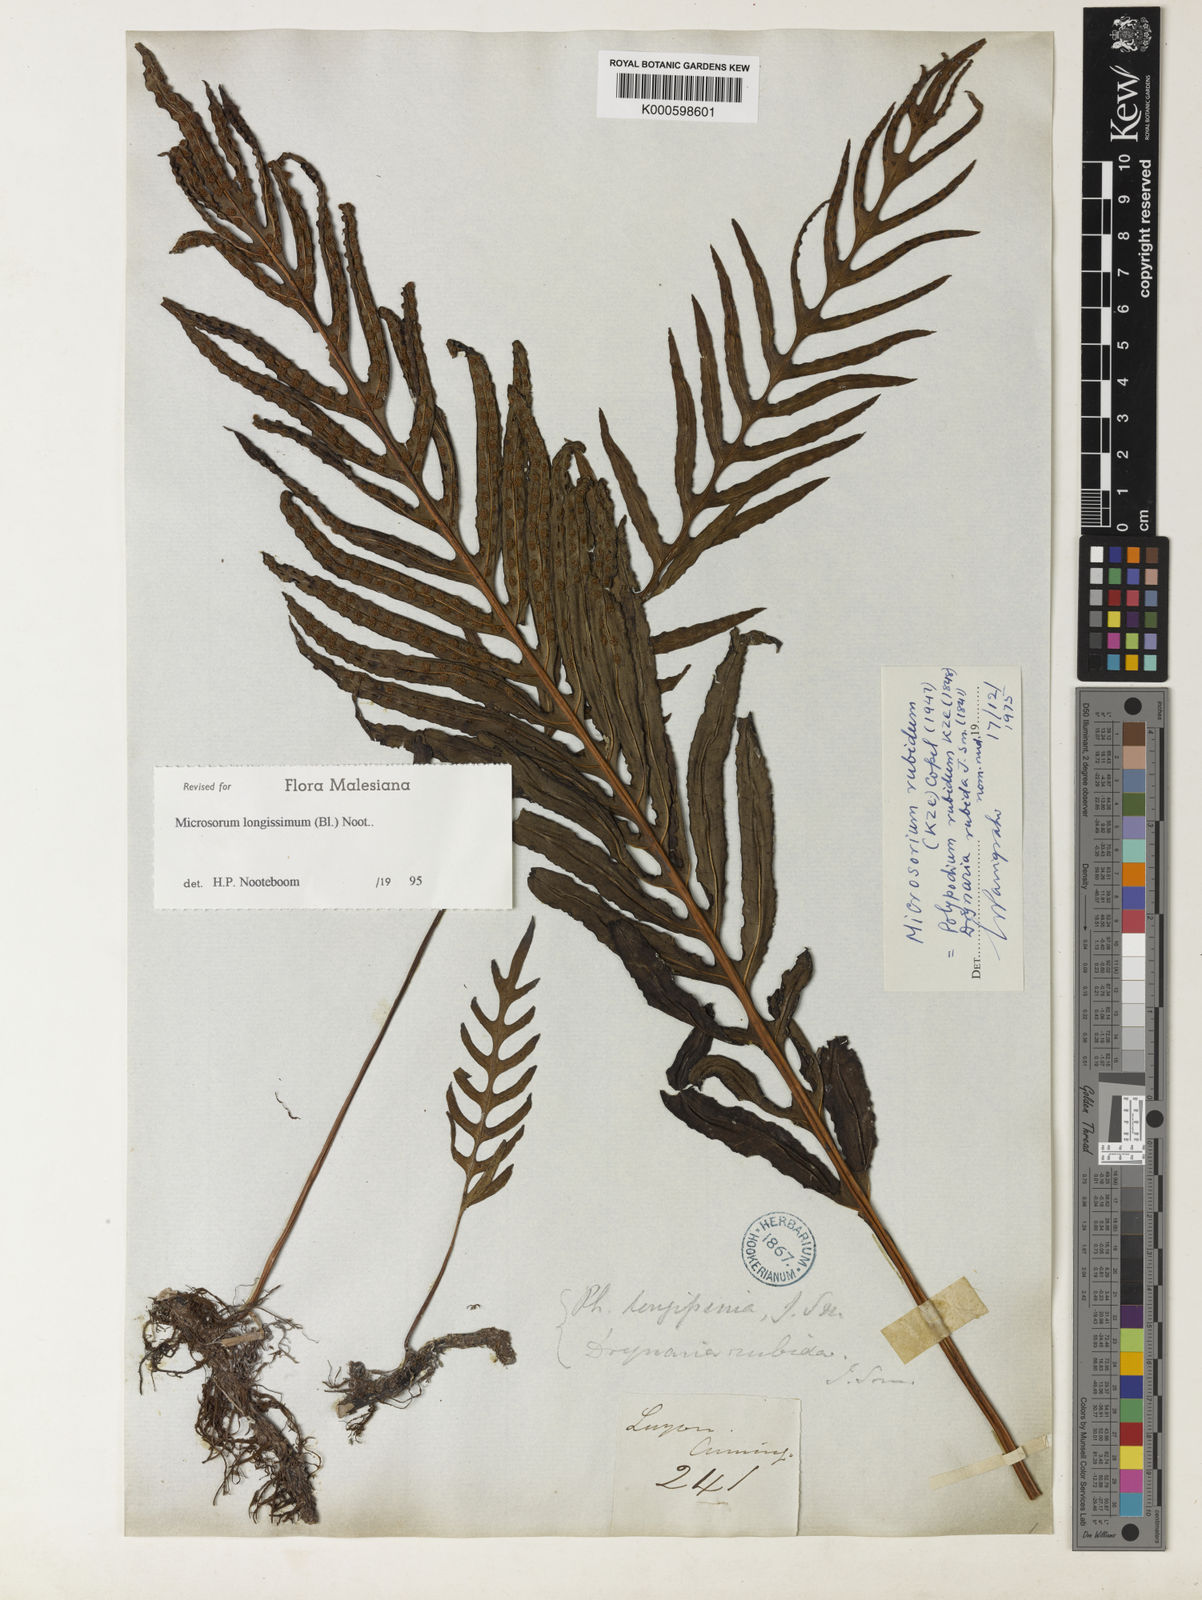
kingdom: Plantae
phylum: Tracheophyta
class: Polypodiopsida
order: Polypodiales
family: Polypodiaceae
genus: Leptochilus
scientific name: Leptochilus longissimus
